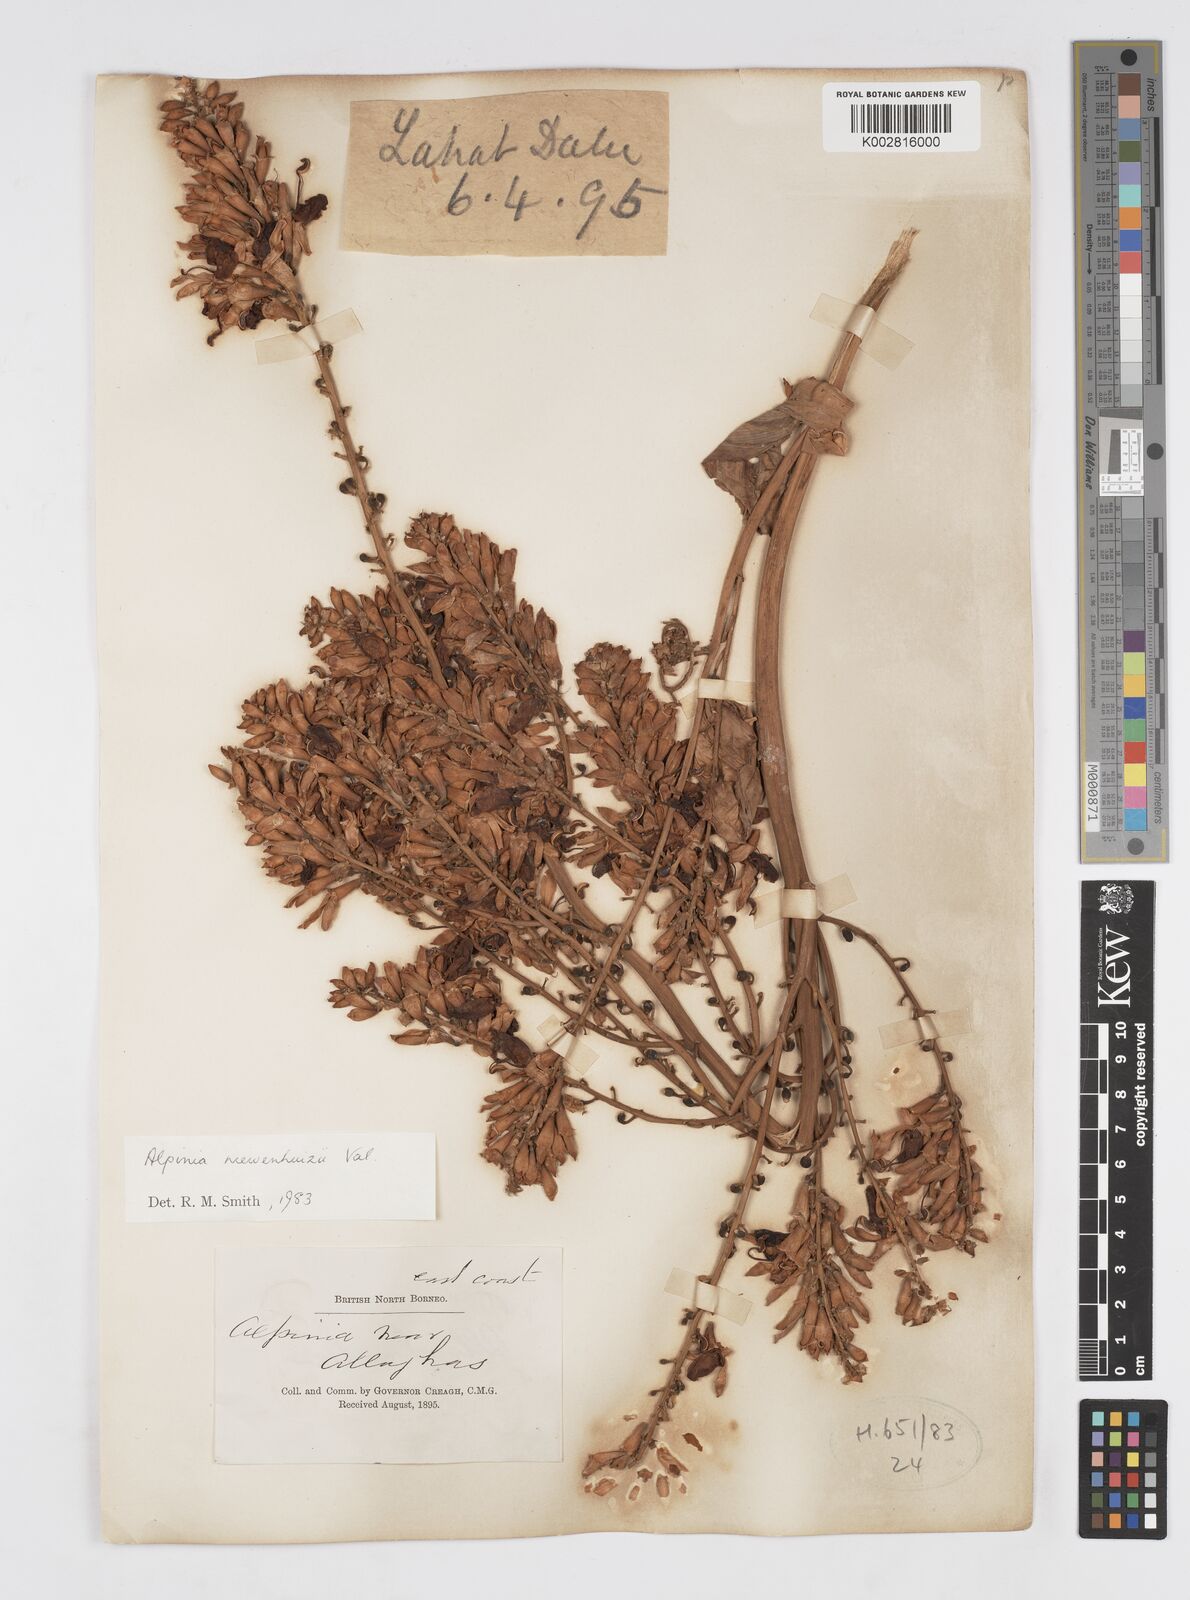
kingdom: Plantae
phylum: Tracheophyta
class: Liliopsida
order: Zingiberales
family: Zingiberaceae
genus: Alpinia
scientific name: Alpinia nieuwenhuizii
